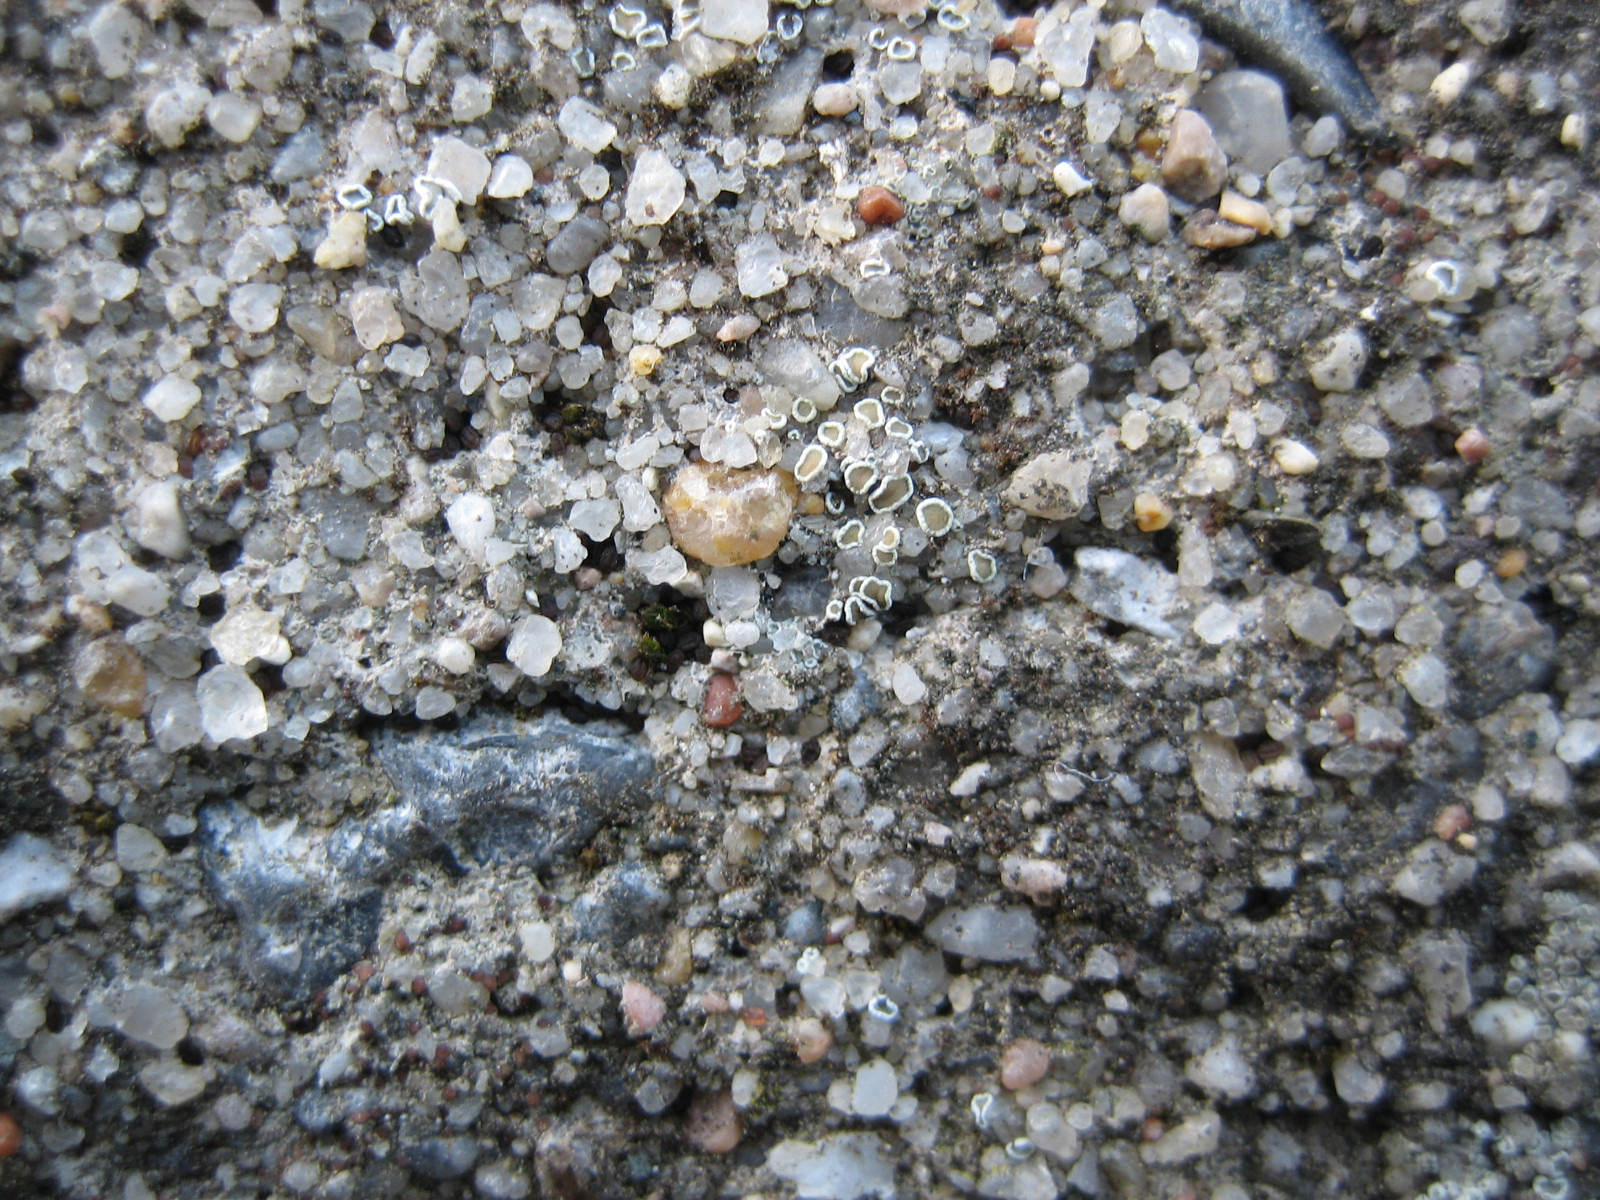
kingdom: Fungi
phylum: Ascomycota
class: Lecanoromycetes
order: Lecanorales
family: Lecanoraceae
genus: Polyozosia
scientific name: Polyozosia semipallida
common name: vinetorin-kantskivelav
